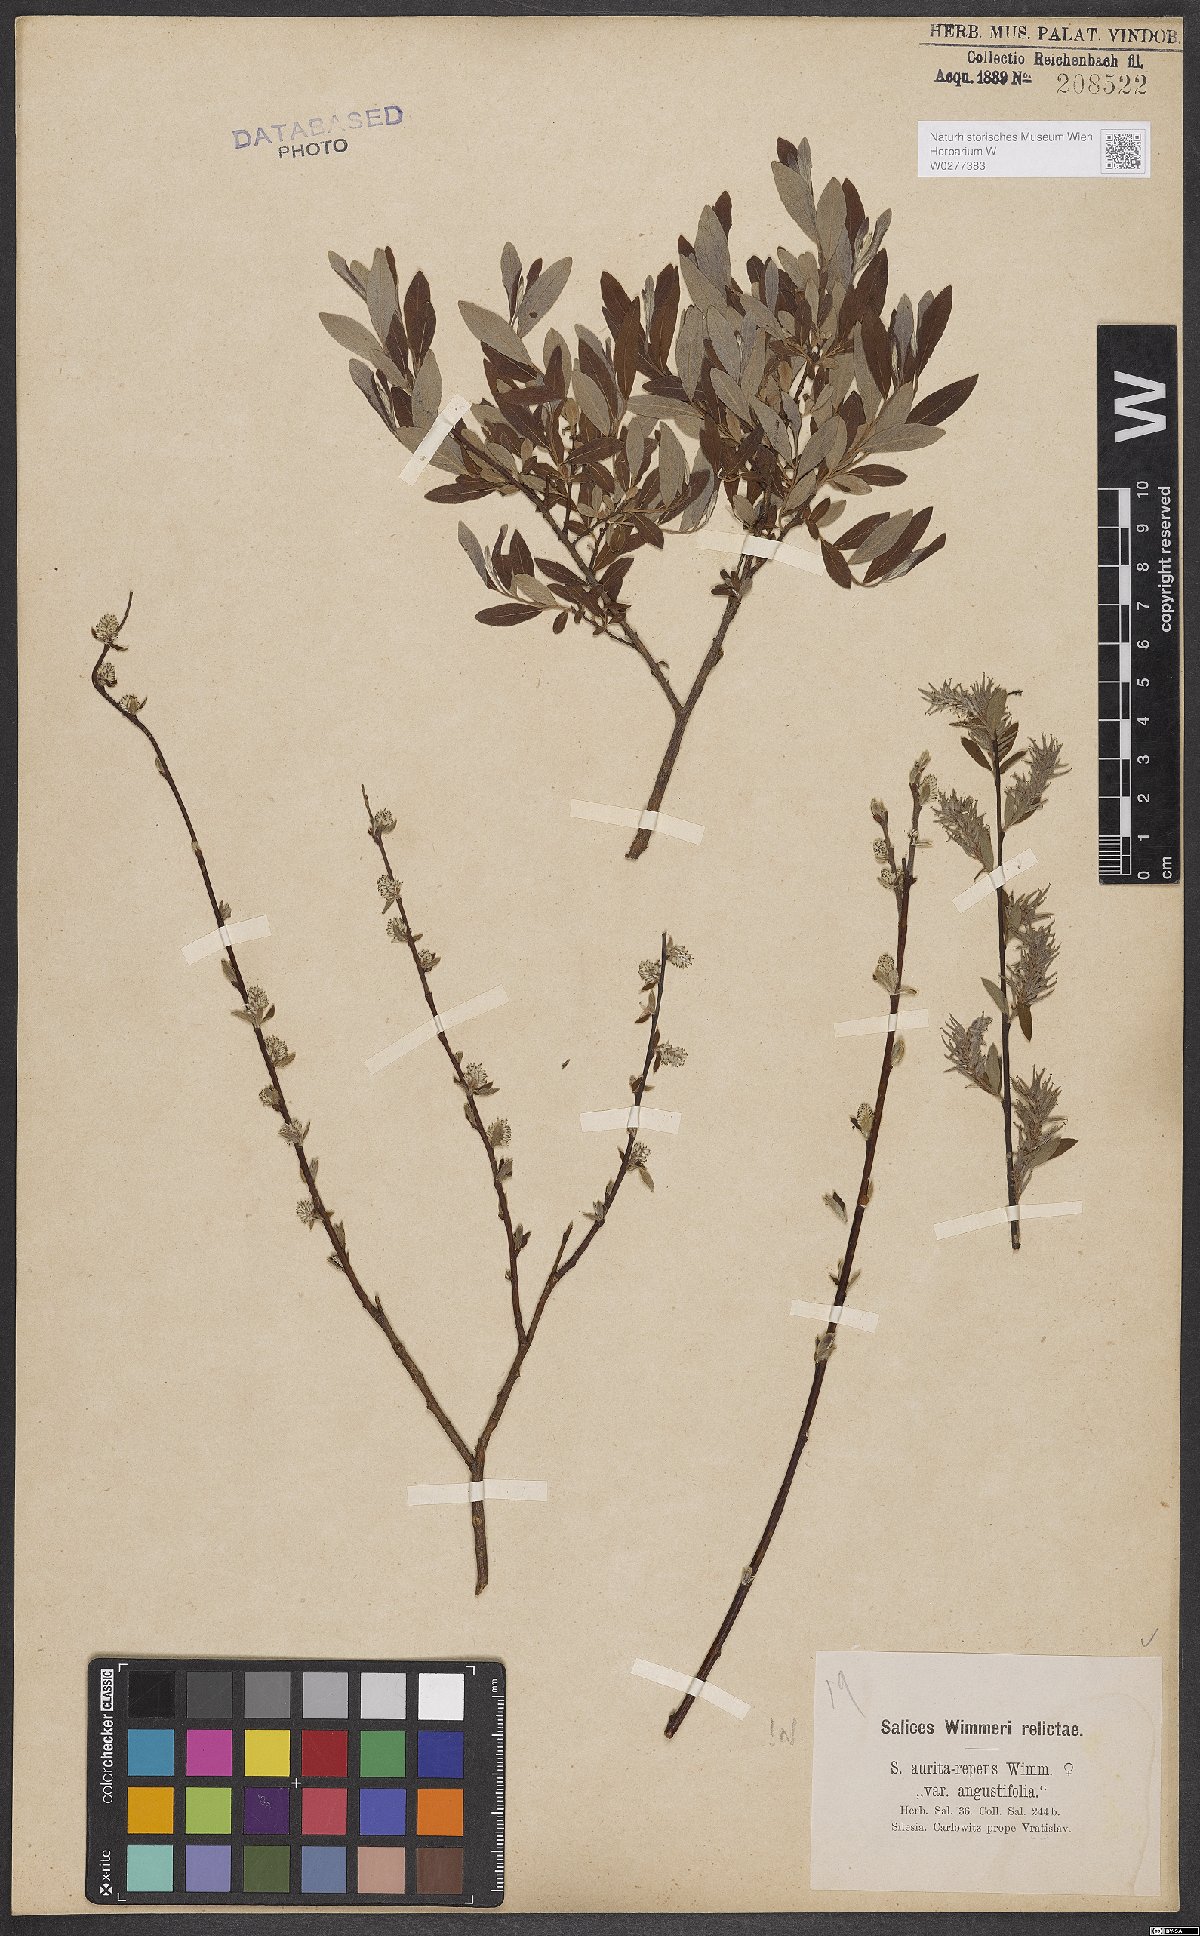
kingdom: Plantae
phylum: Tracheophyta
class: Magnoliopsida
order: Malpighiales
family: Salicaceae
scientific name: Salicaceae
